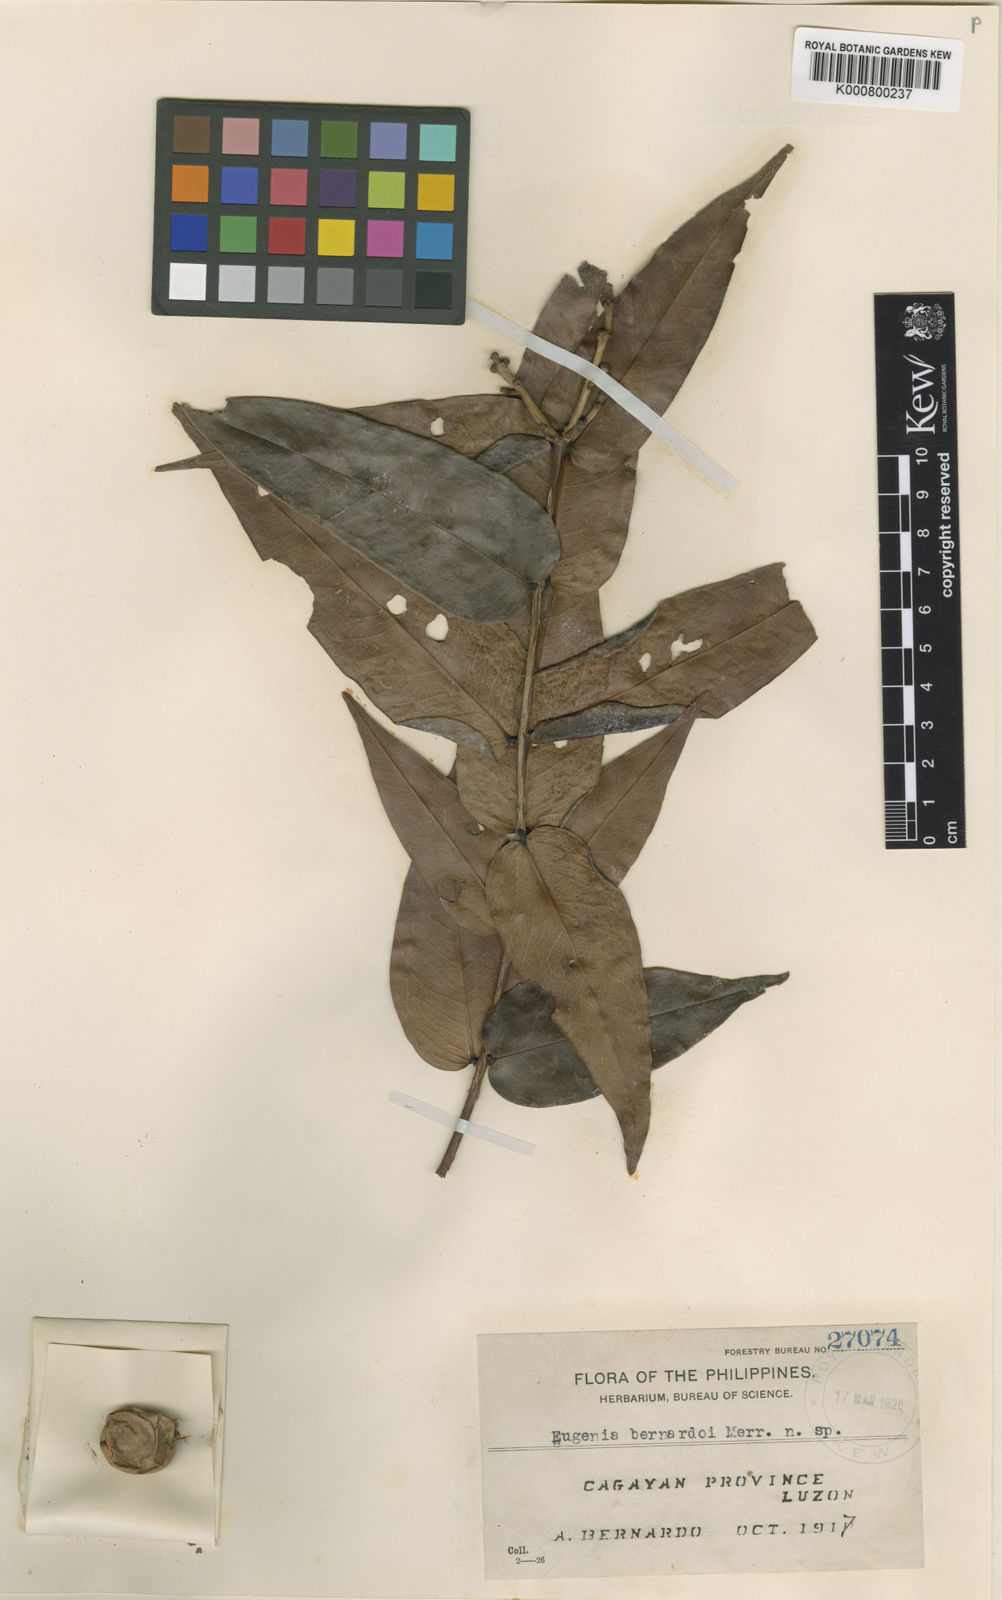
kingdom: Plantae
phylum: Tracheophyta
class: Magnoliopsida
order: Myrtales
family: Myrtaceae
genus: Syzygium
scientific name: Syzygium bernardoi
